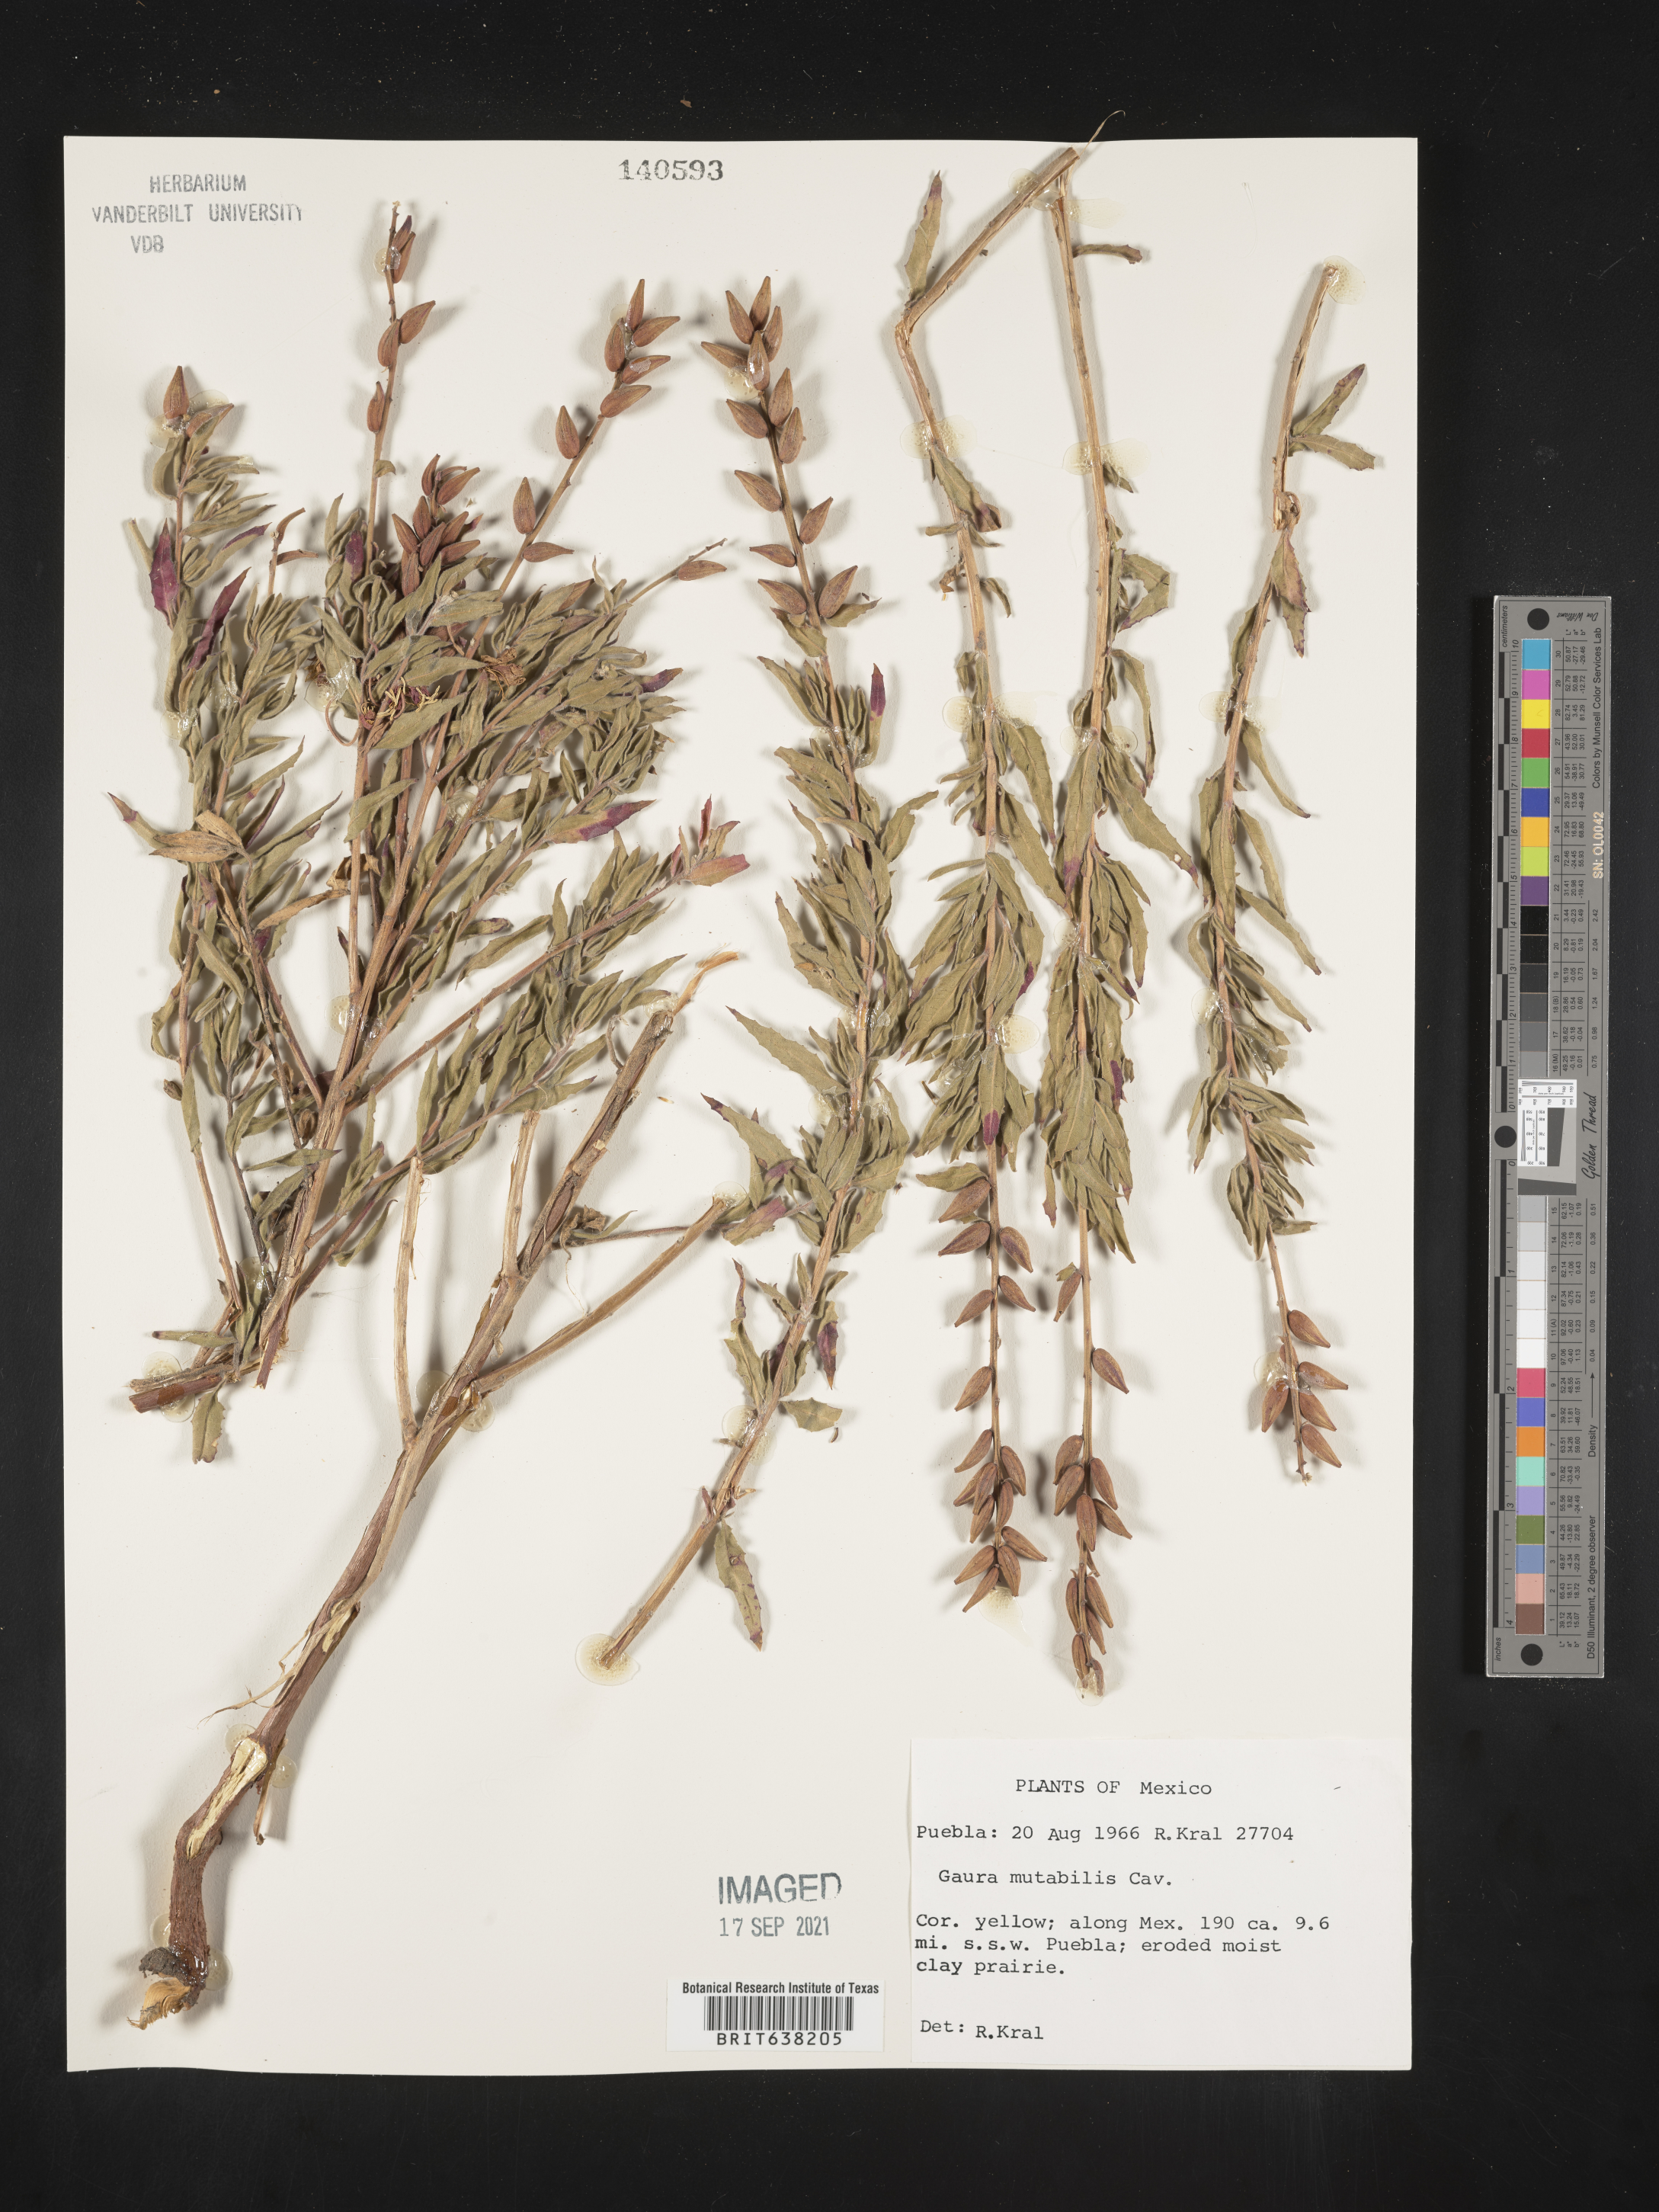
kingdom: Plantae
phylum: Tracheophyta
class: Magnoliopsida
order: Myrtales
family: Onagraceae
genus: Oenothera
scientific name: Oenothera
